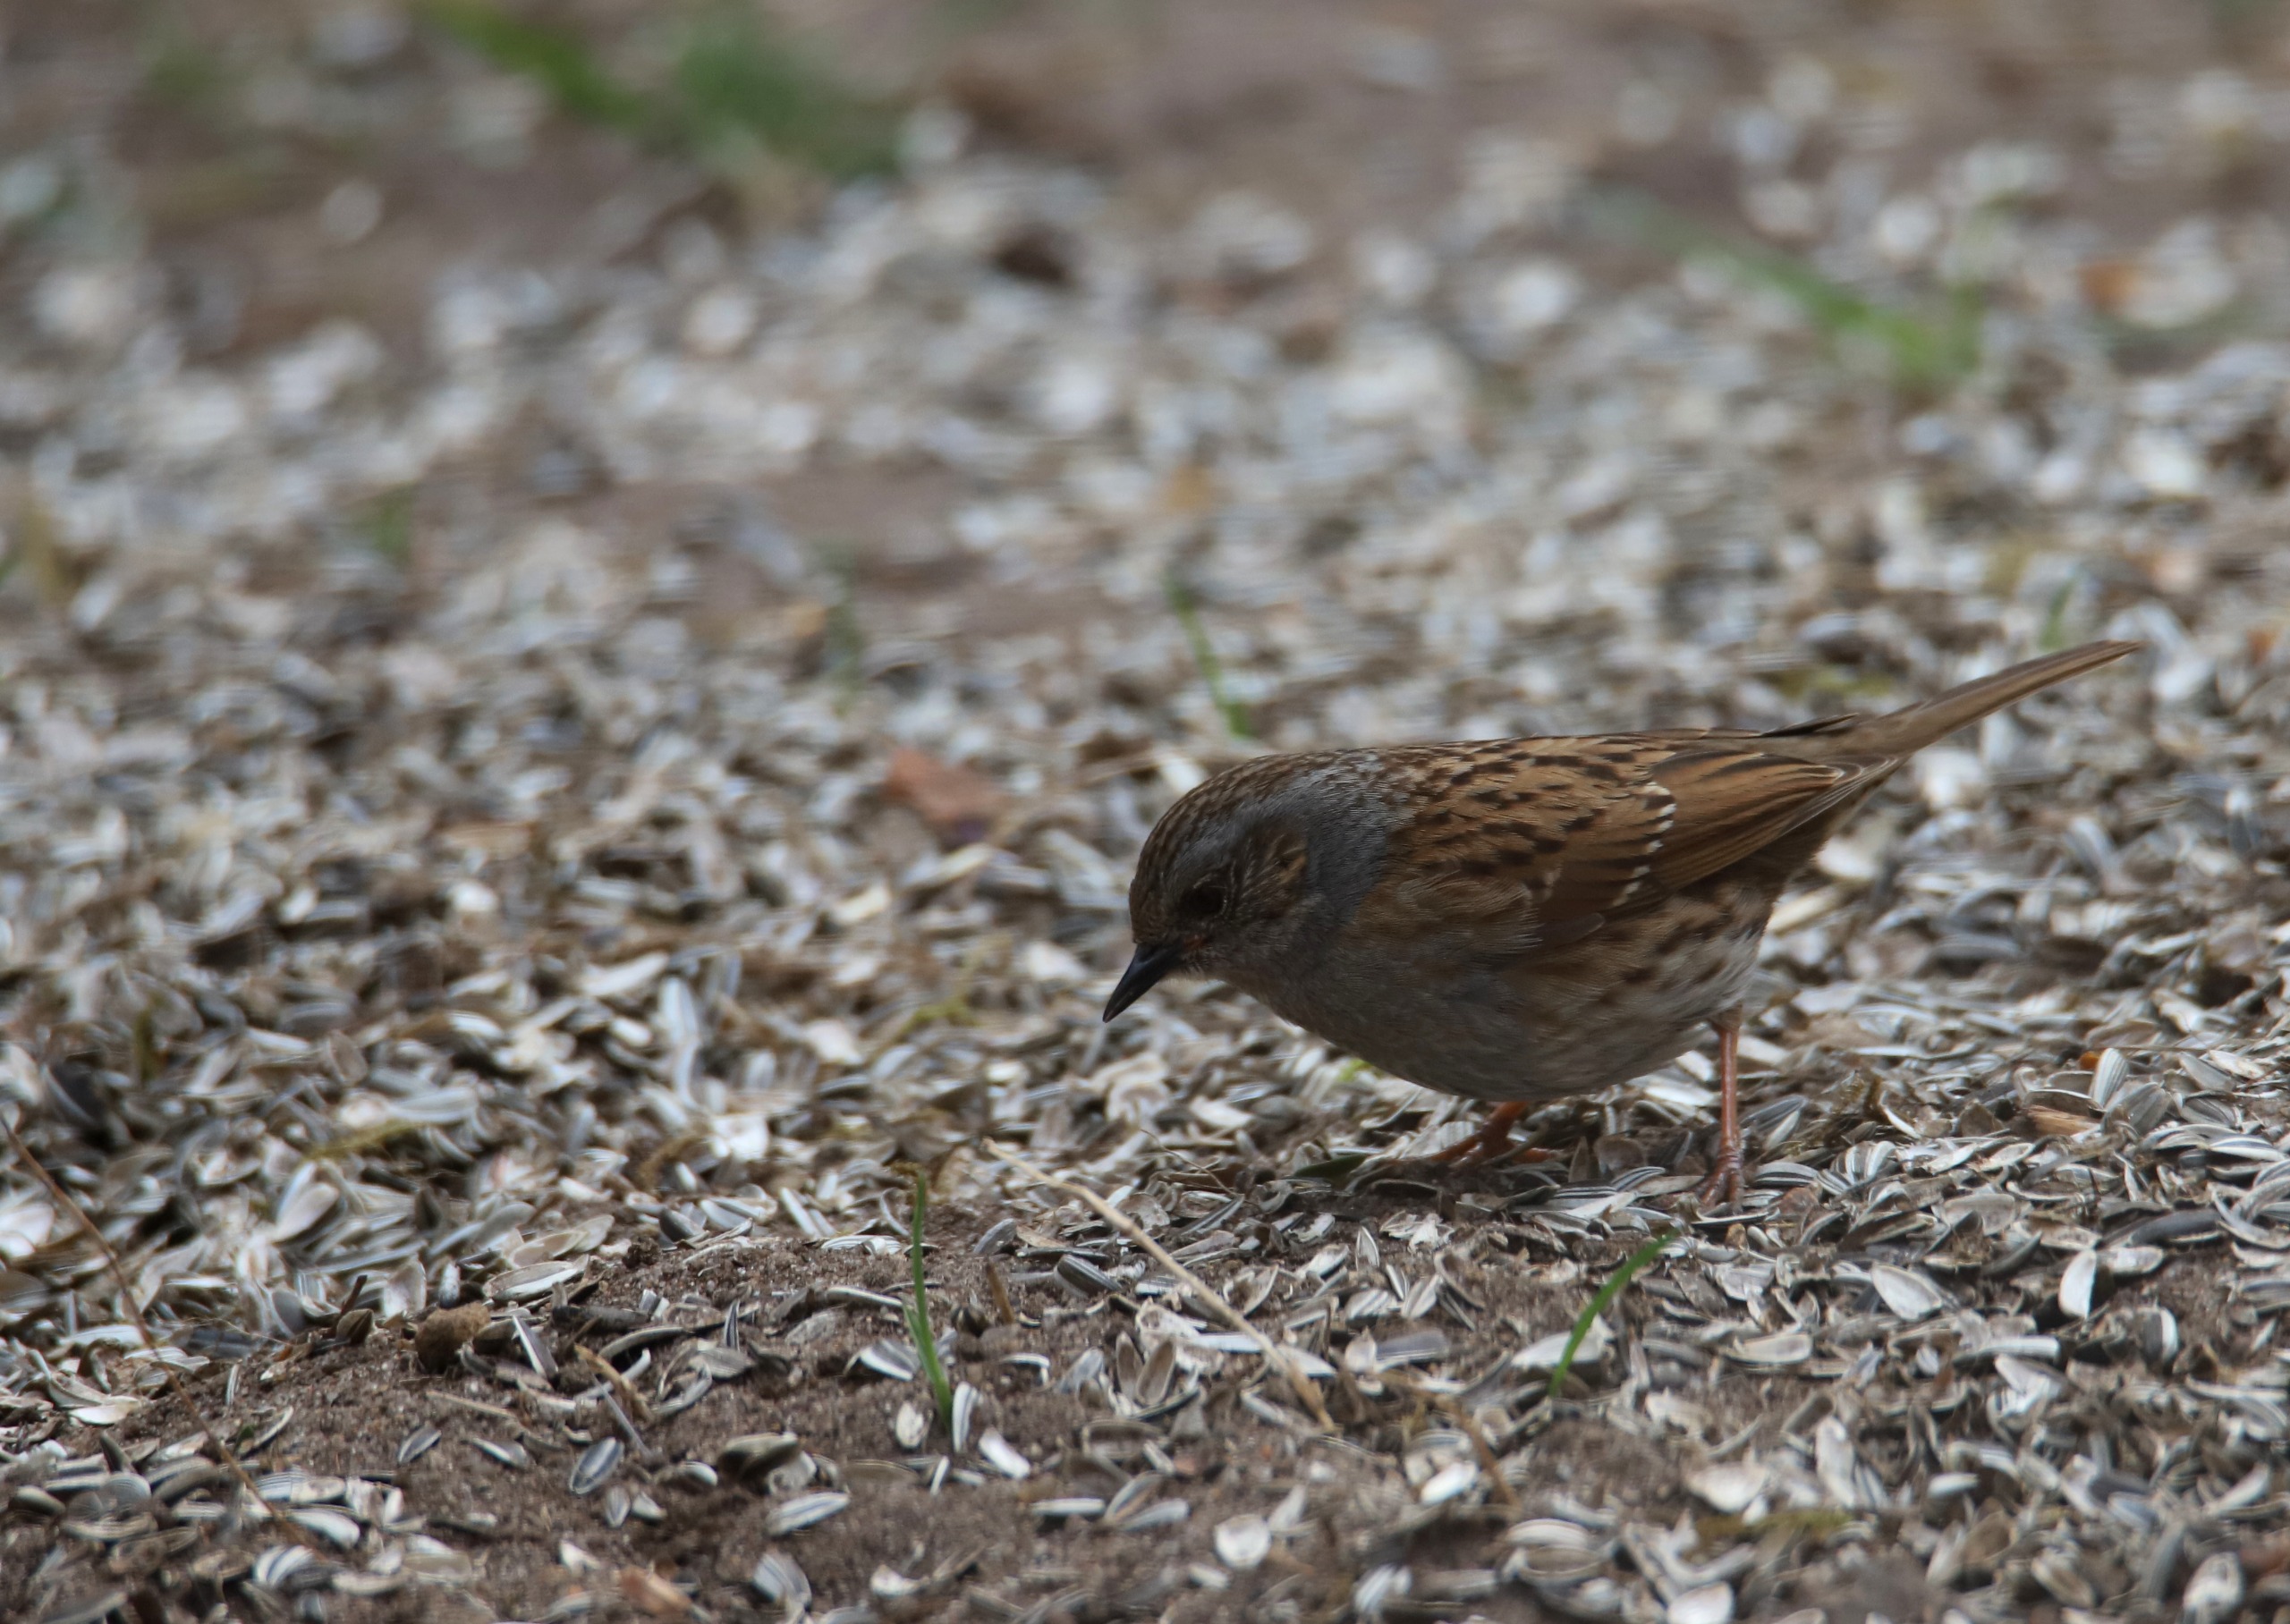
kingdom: Animalia
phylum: Chordata
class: Aves
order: Passeriformes
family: Prunellidae
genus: Prunella
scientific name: Prunella modularis
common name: Jernspurv
